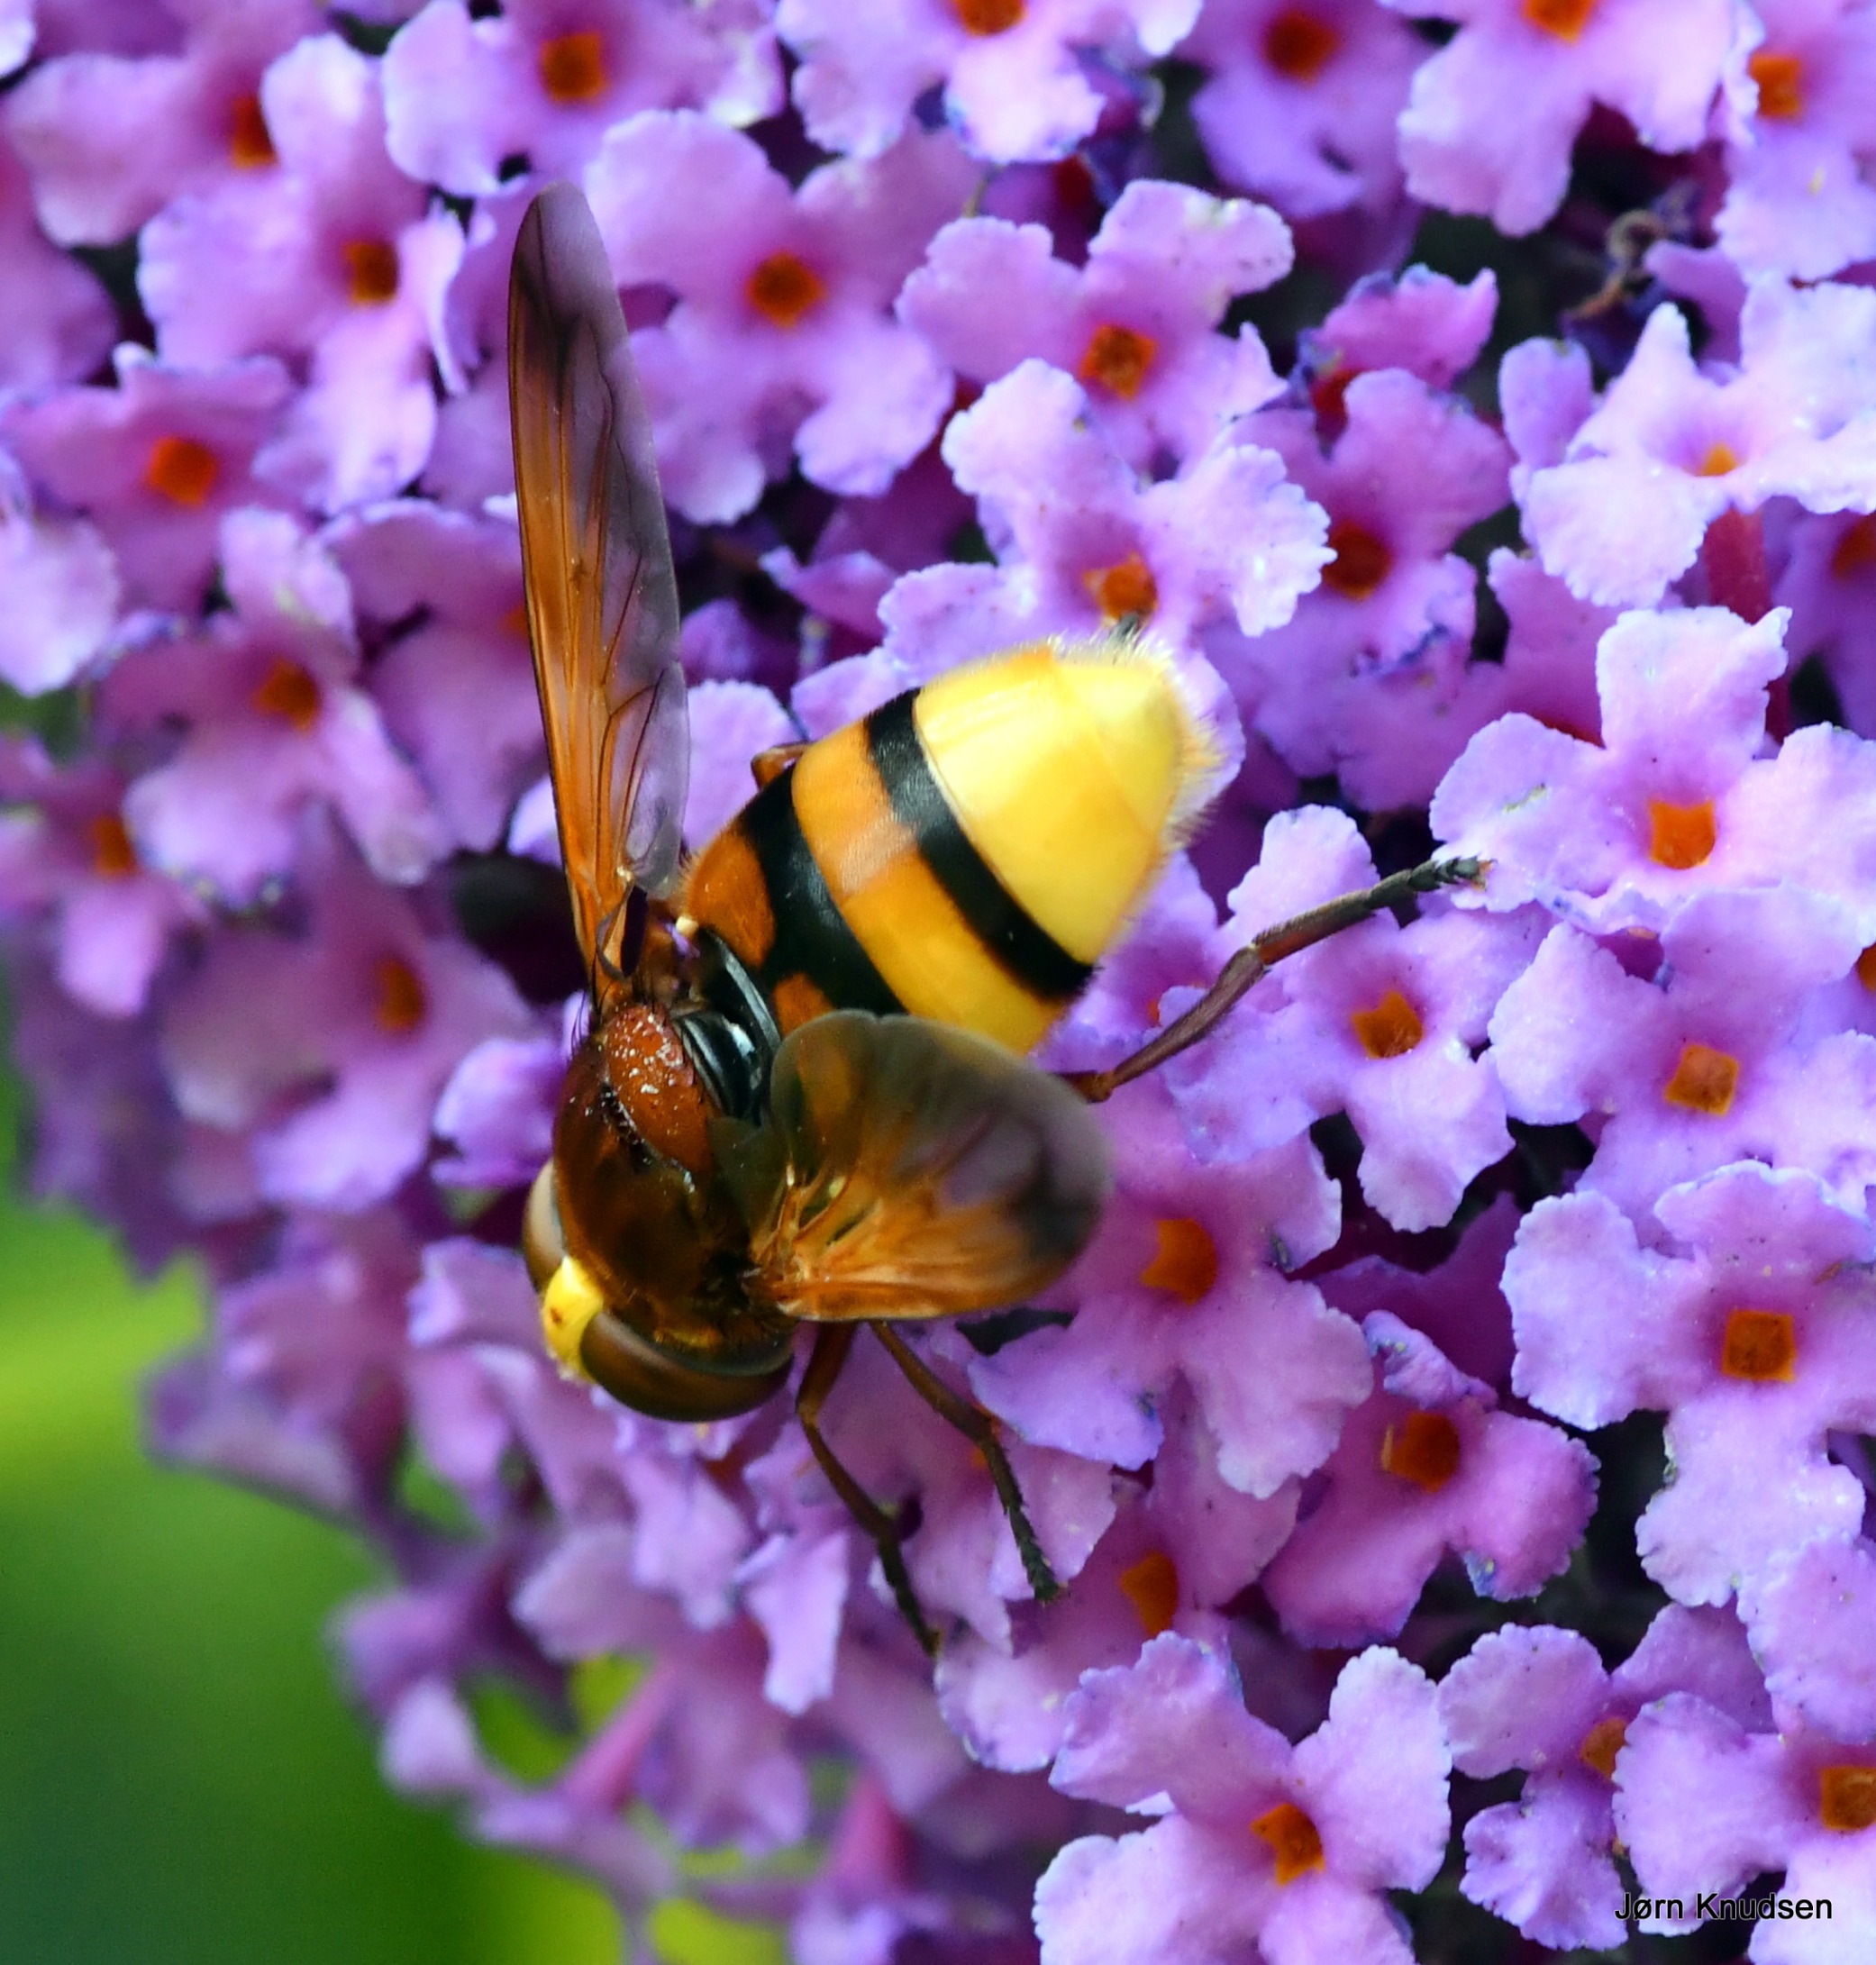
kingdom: Animalia
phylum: Arthropoda
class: Insecta
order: Diptera
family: Syrphidae
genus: Volucella
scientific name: Volucella zonaria
